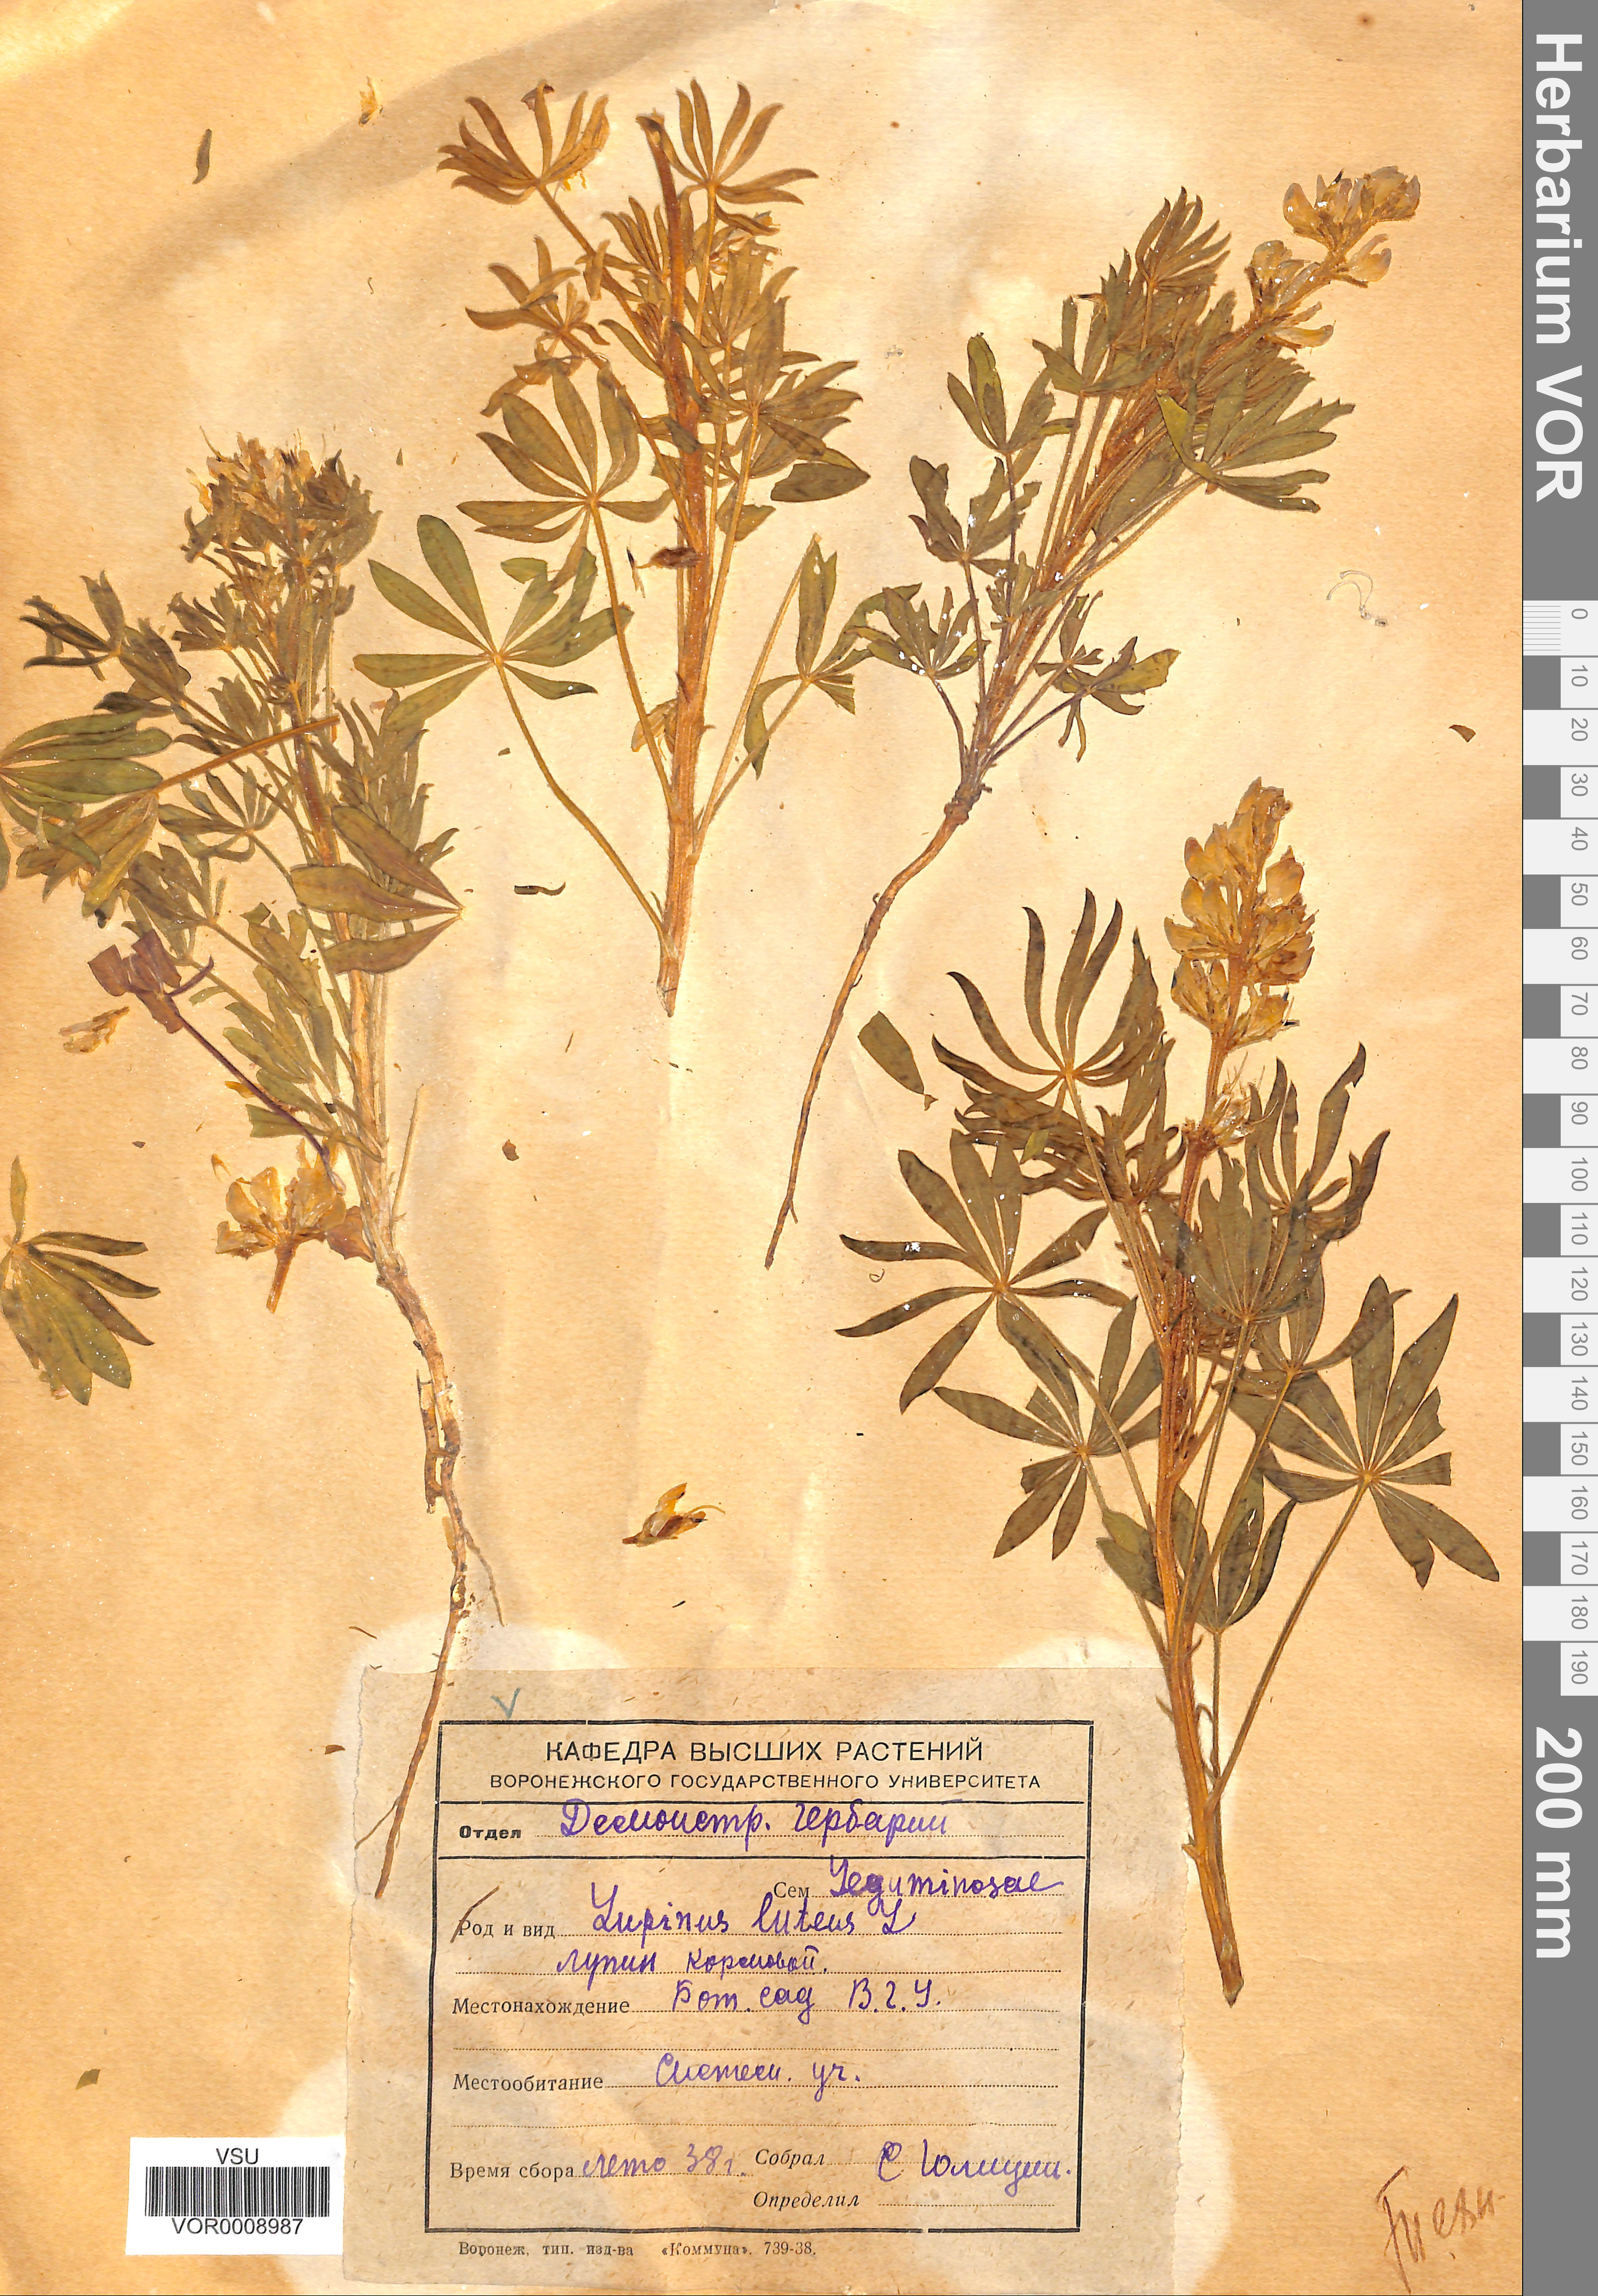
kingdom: Plantae
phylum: Tracheophyta
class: Magnoliopsida
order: Fabales
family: Fabaceae
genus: Lupinus
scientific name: Lupinus luteus
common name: European yellow lupine
